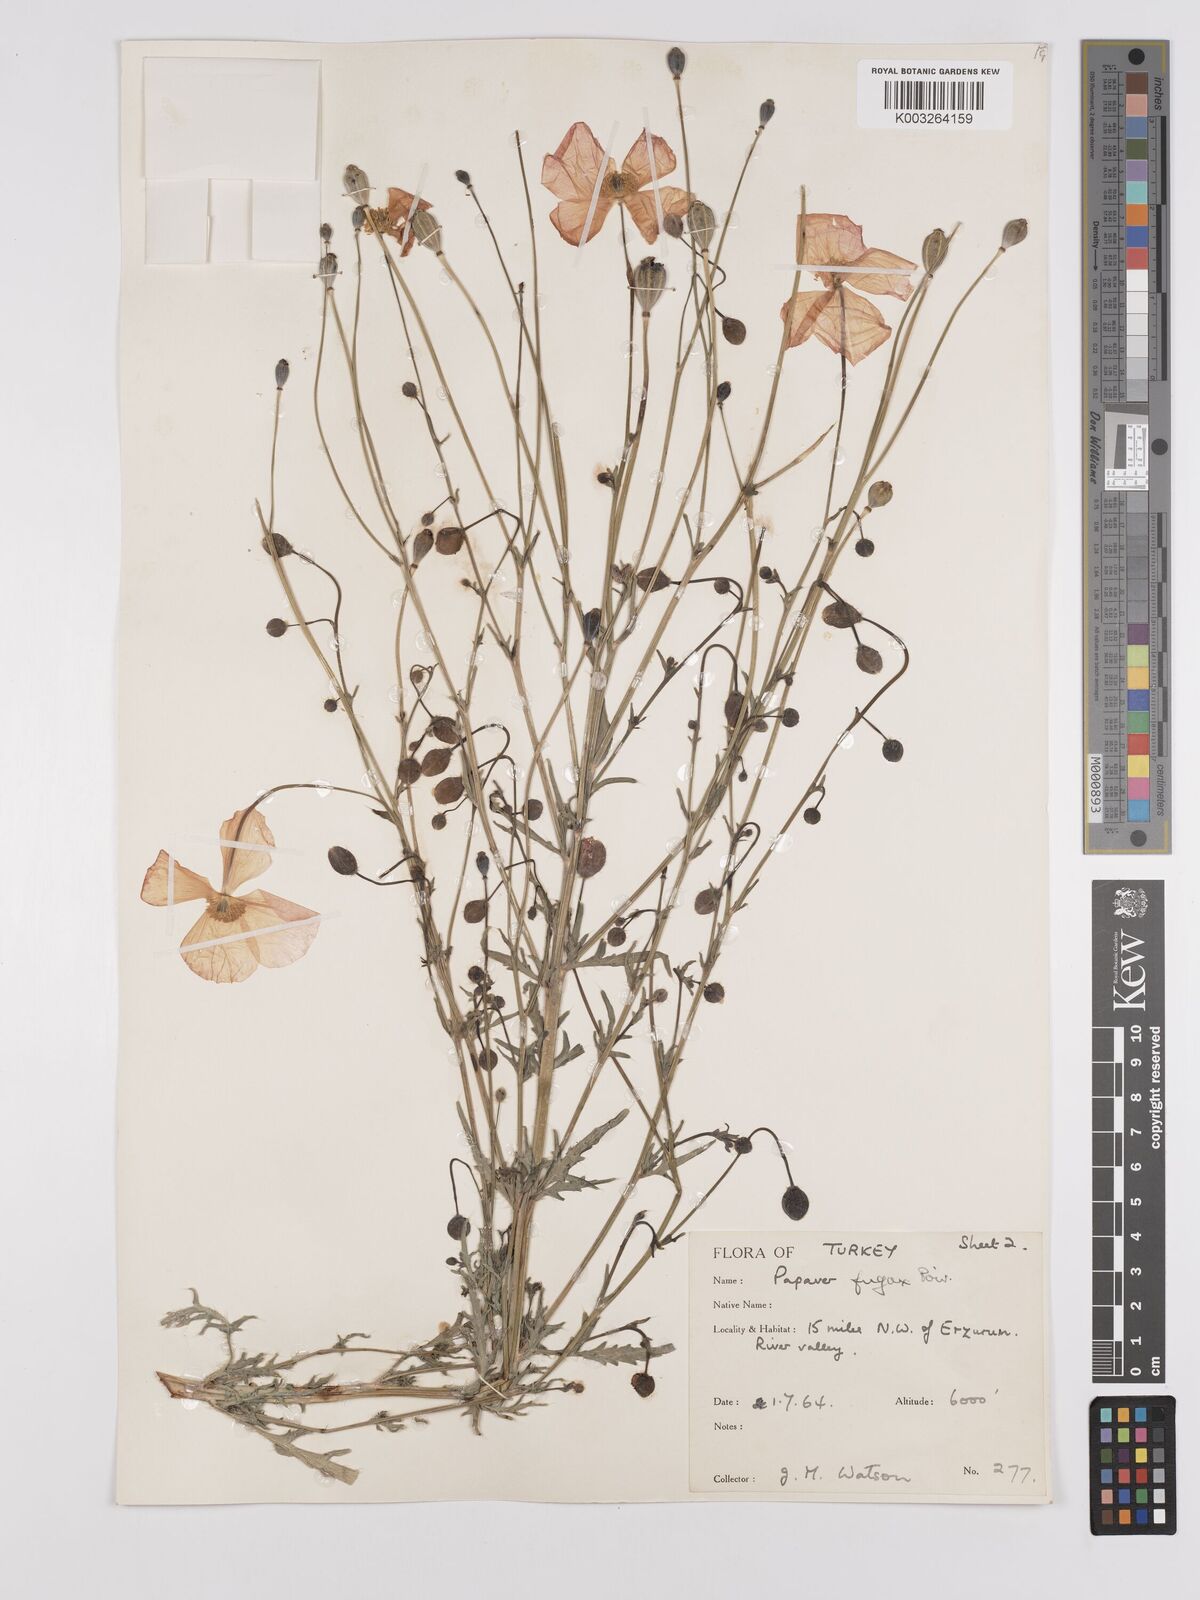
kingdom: Plantae
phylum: Tracheophyta
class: Magnoliopsida
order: Ranunculales
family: Papaveraceae
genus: Papaver
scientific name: Papaver armeniacum
